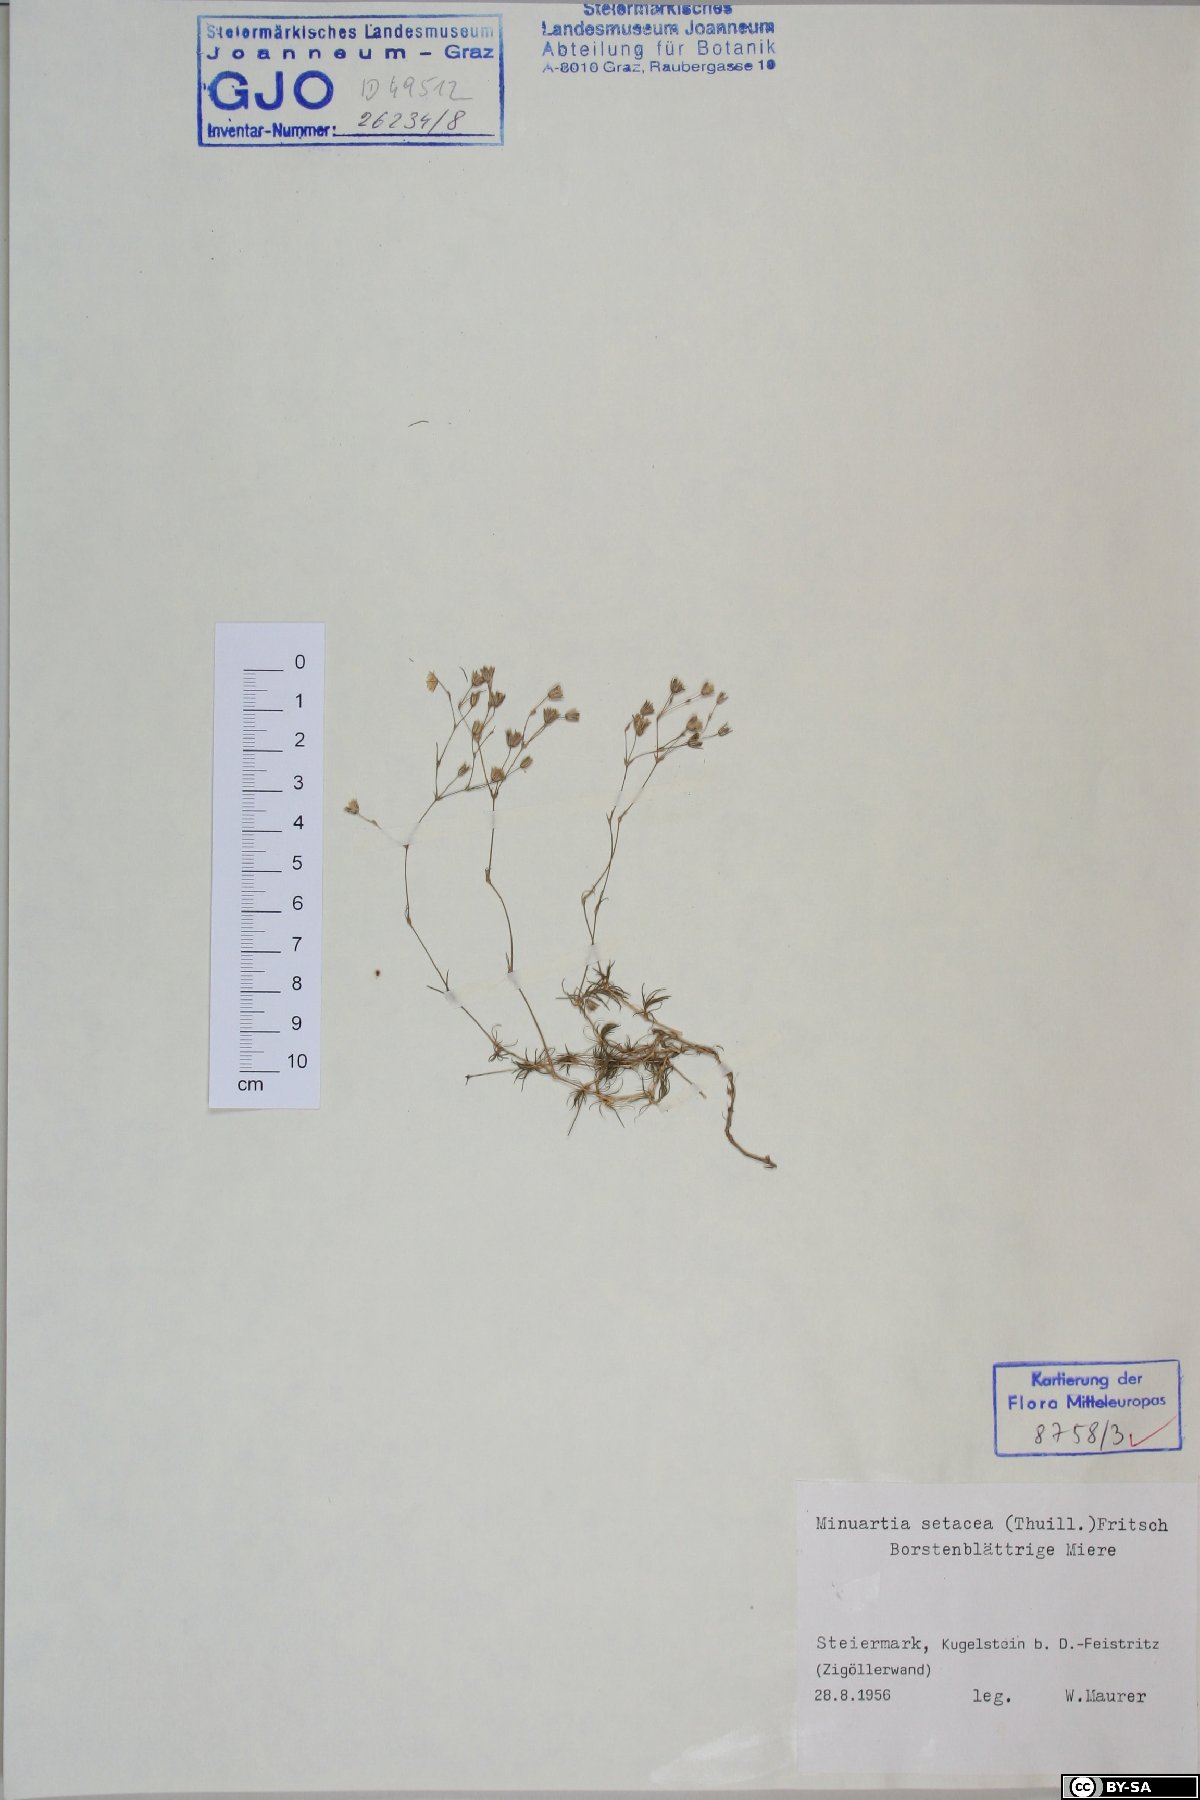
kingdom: Plantae
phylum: Tracheophyta
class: Magnoliopsida
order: Caryophyllales
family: Caryophyllaceae
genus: Minuartia
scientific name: Minuartia setacea
